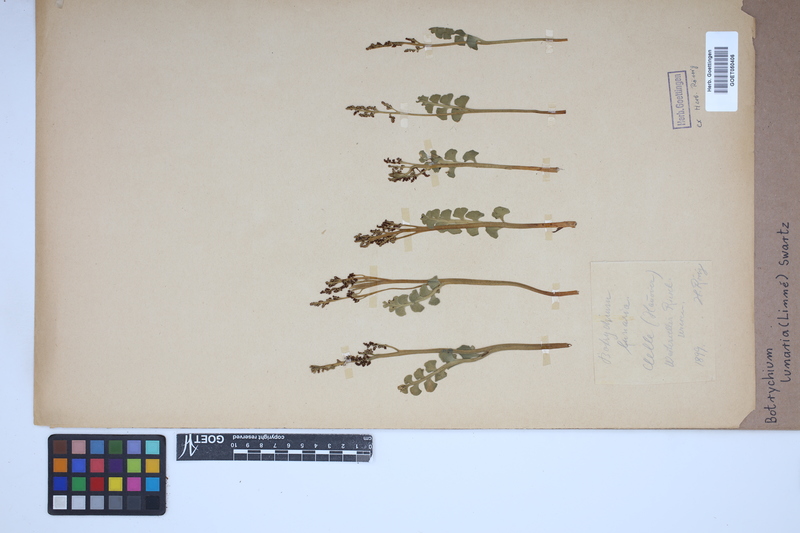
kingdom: Plantae
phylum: Tracheophyta
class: Polypodiopsida
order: Ophioglossales
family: Ophioglossaceae
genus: Botrychium
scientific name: Botrychium lunaria
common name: Moonwort
